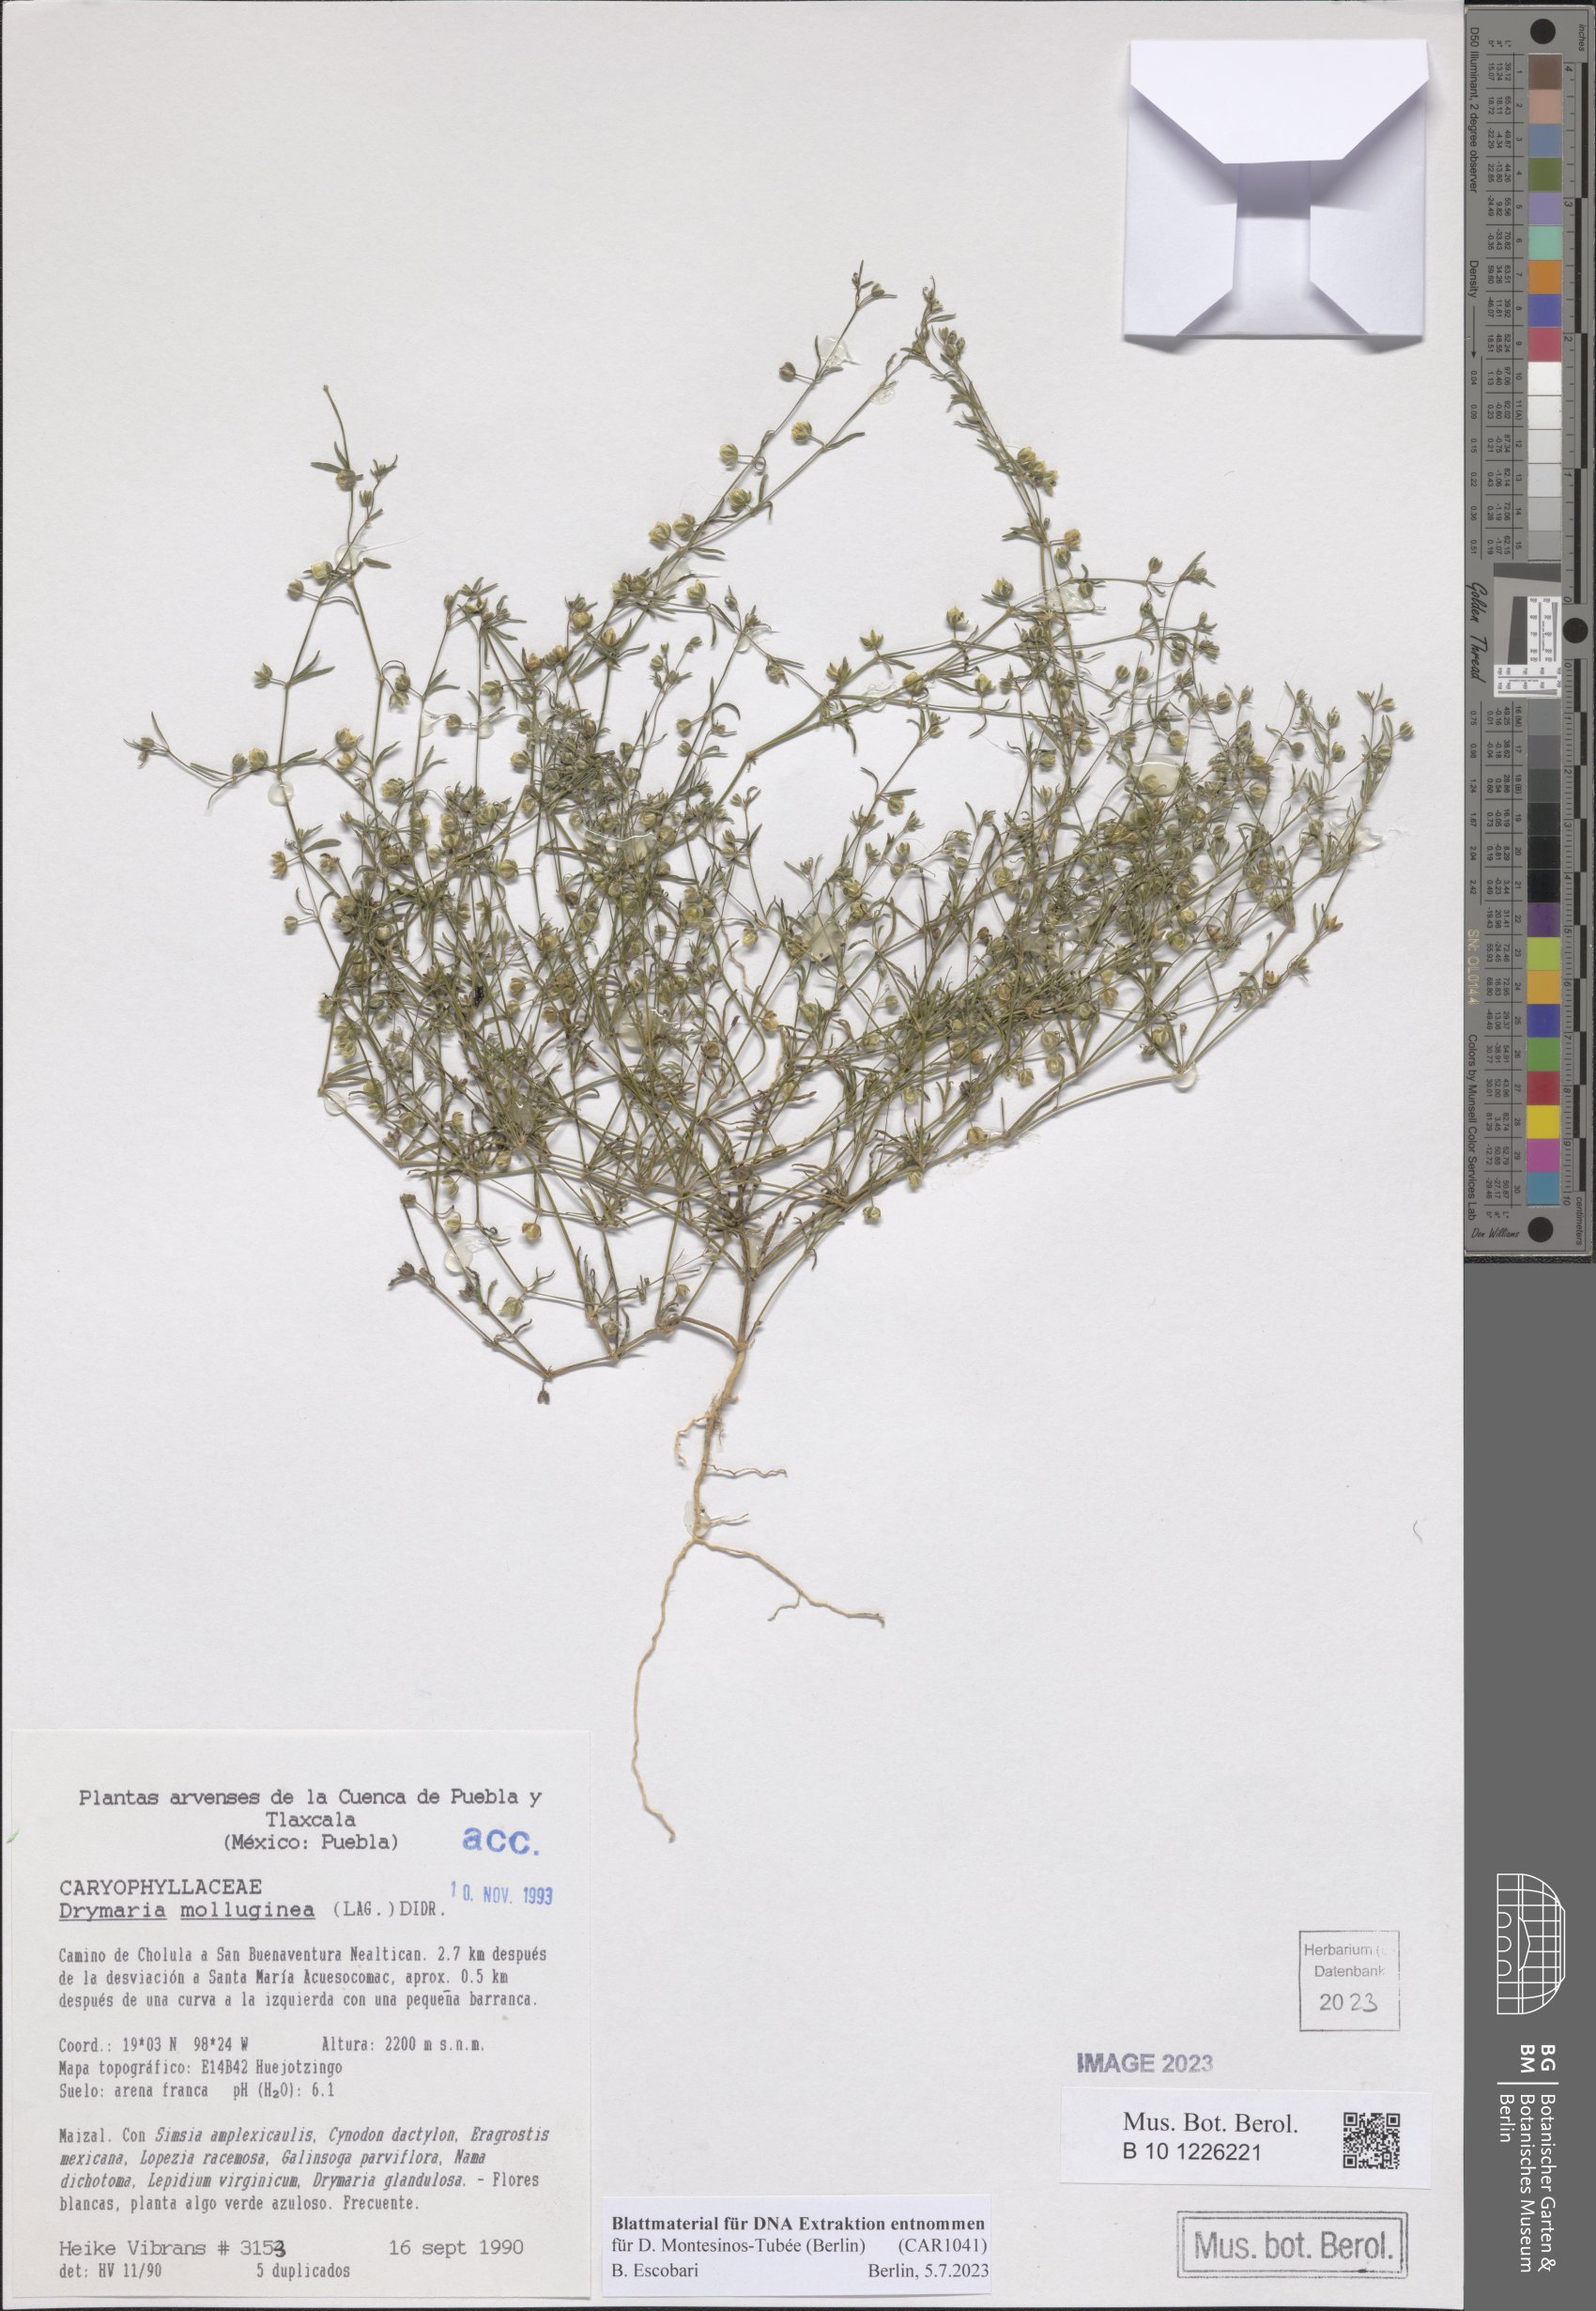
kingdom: Plantae
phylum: Tracheophyta
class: Magnoliopsida
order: Caryophyllales
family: Caryophyllaceae
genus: Drymaria
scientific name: Drymaria molluginea
